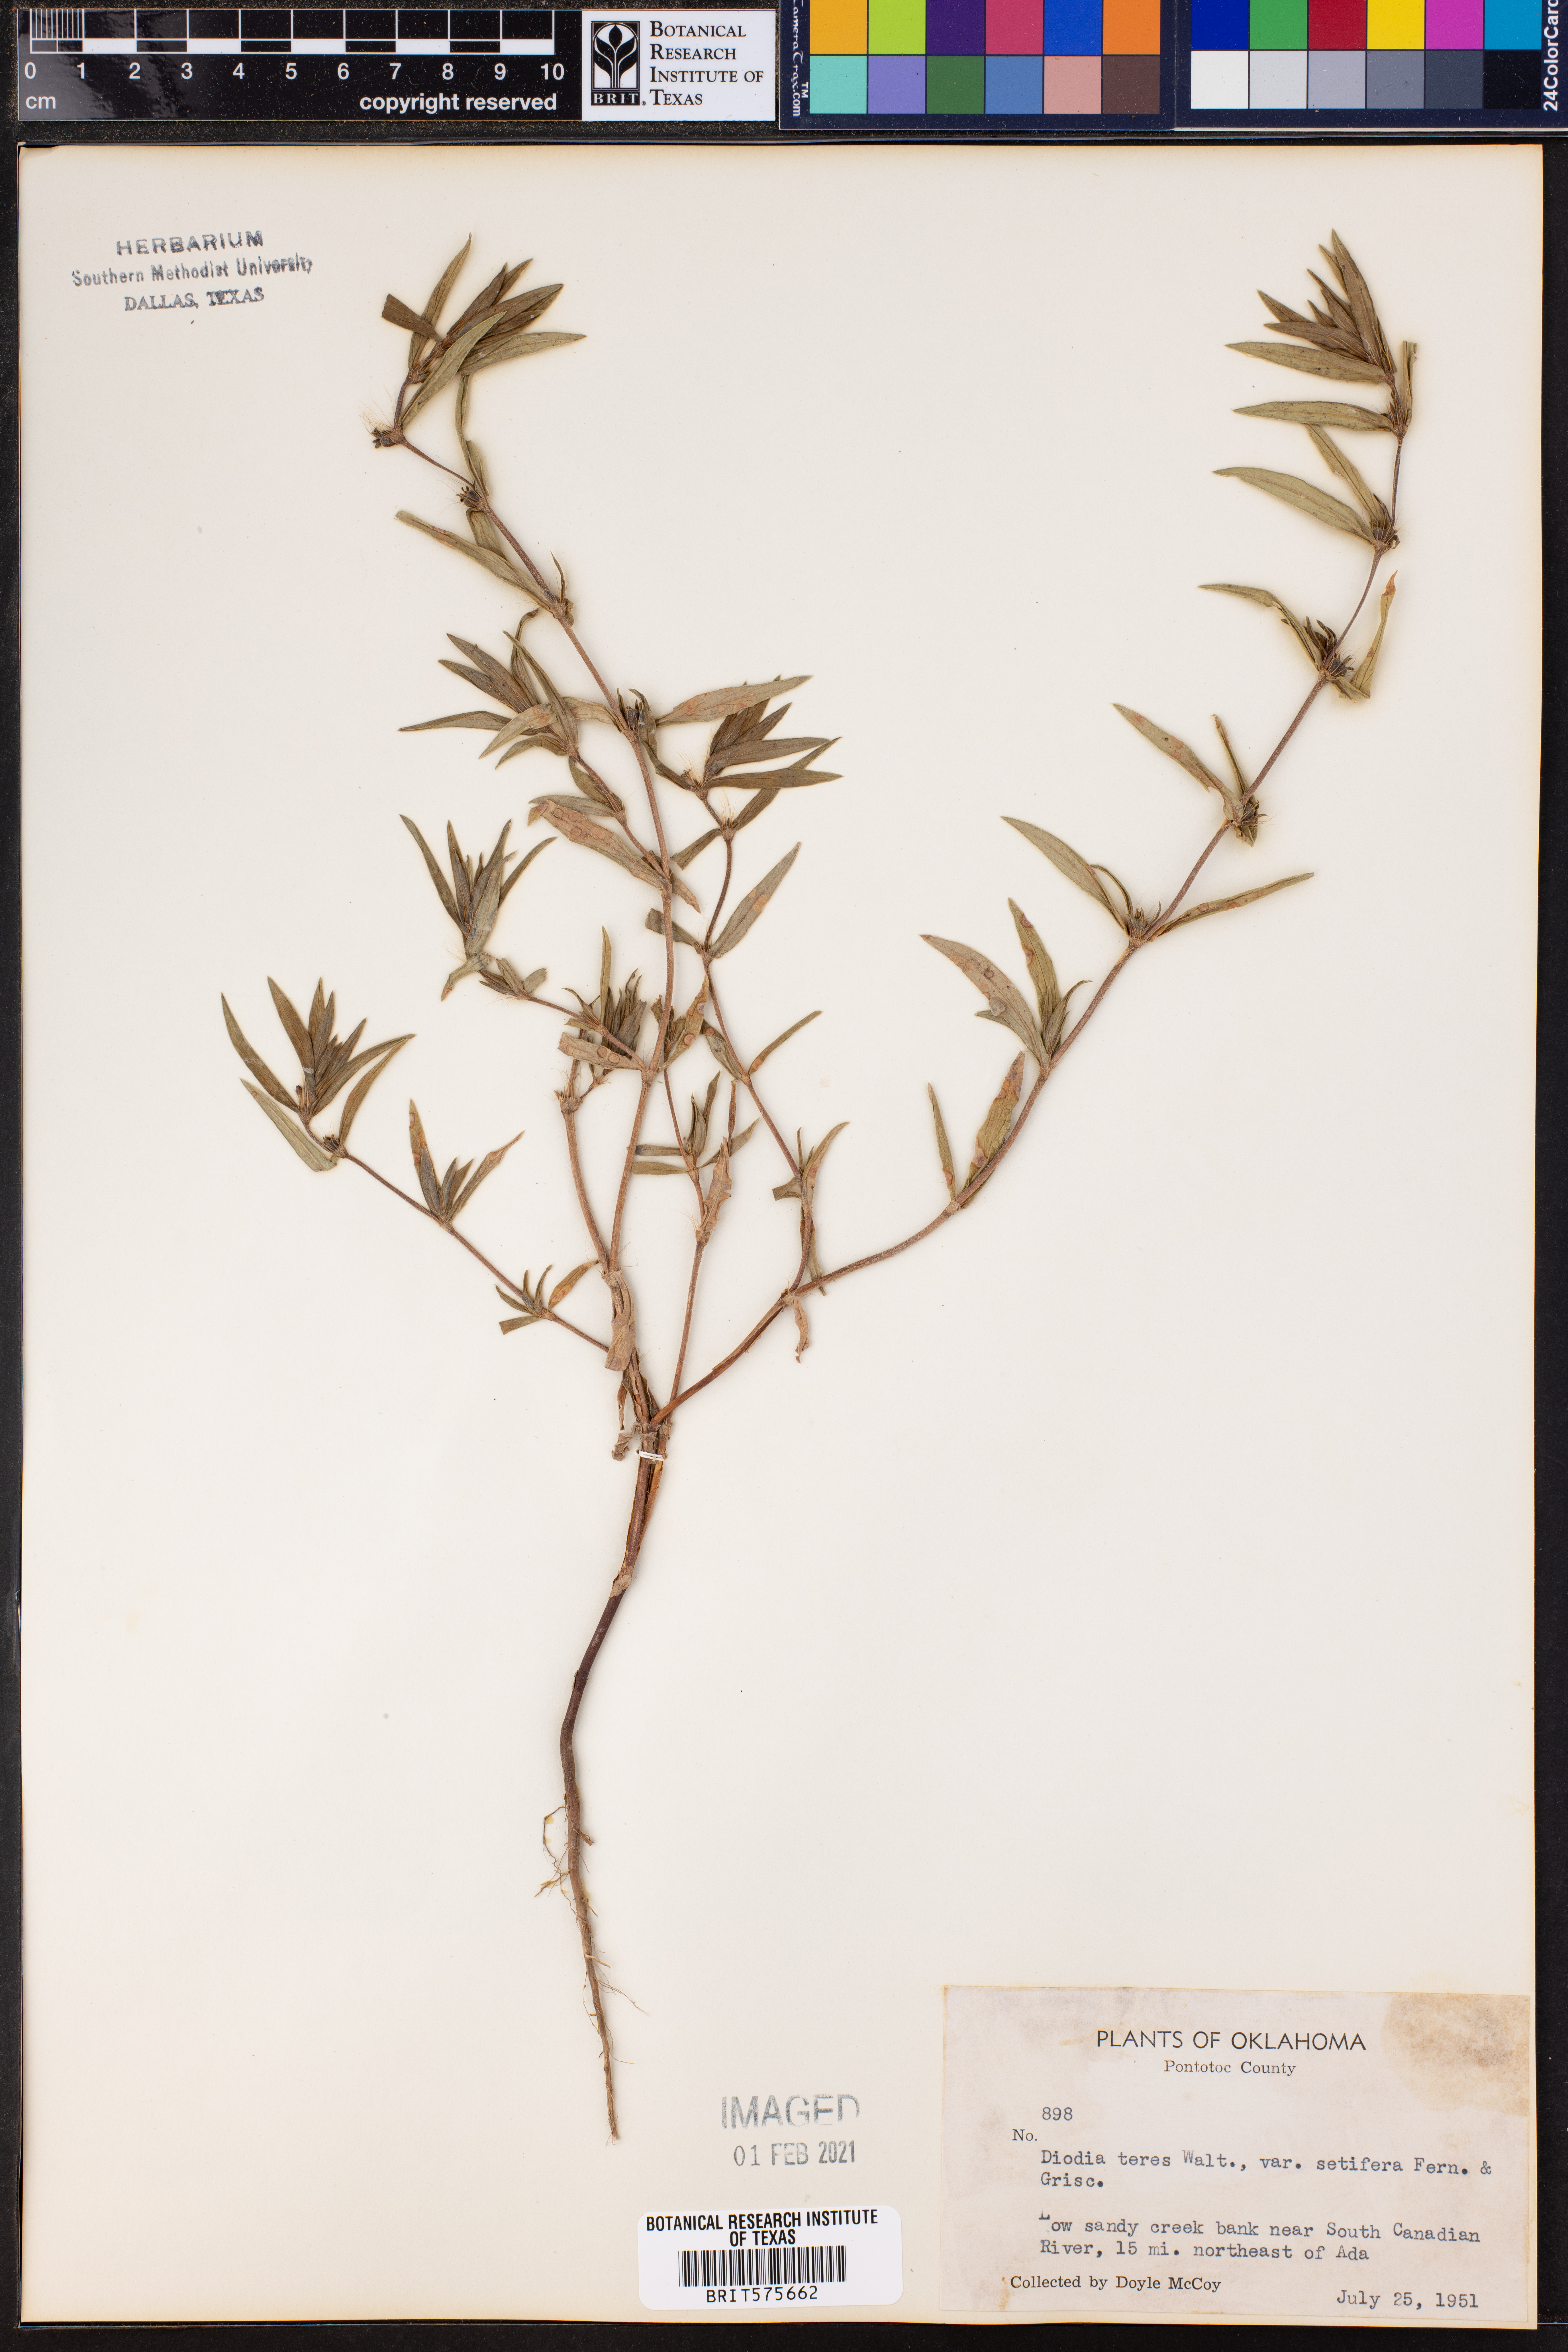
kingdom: Plantae
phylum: Tracheophyta
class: Magnoliopsida
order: Gentianales
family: Rubiaceae
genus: Hexasepalum
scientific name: Hexasepalum teres
